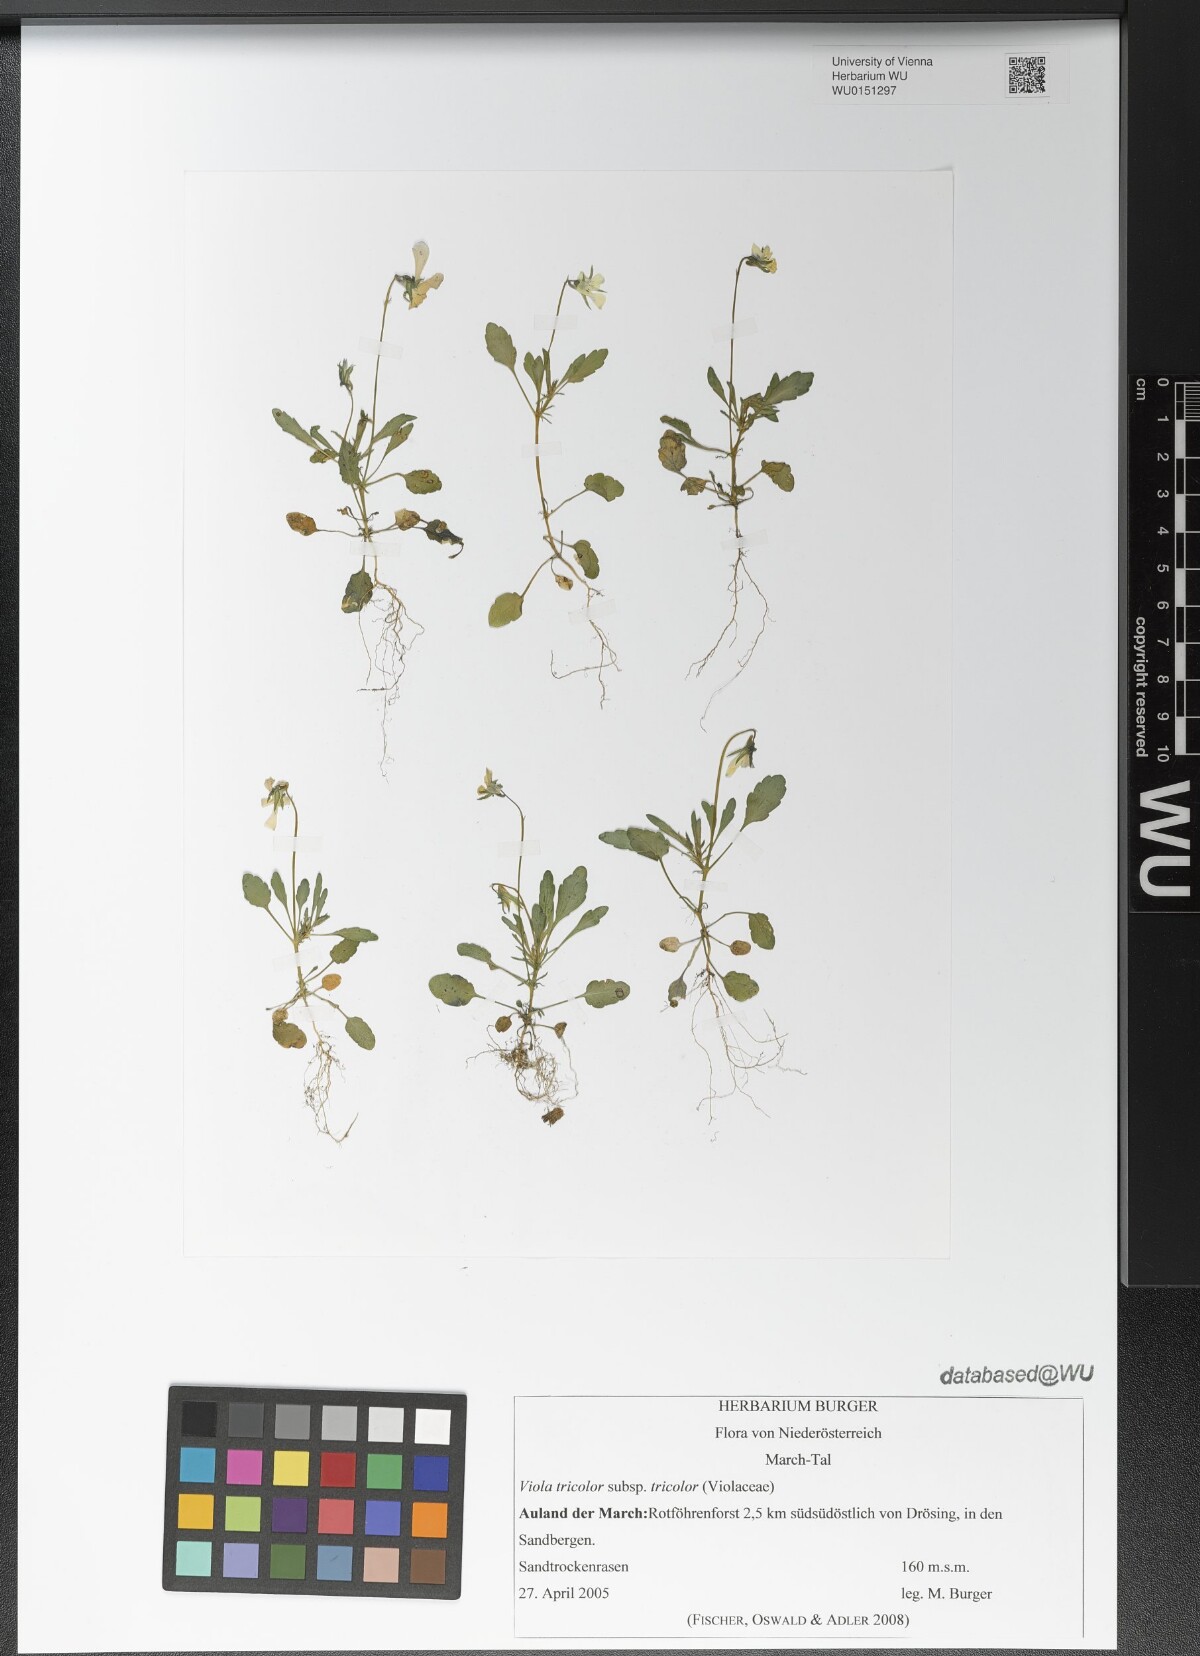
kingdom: Plantae
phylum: Tracheophyta
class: Magnoliopsida
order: Malpighiales
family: Violaceae
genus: Viola
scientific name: Viola tricolor
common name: Pansy
